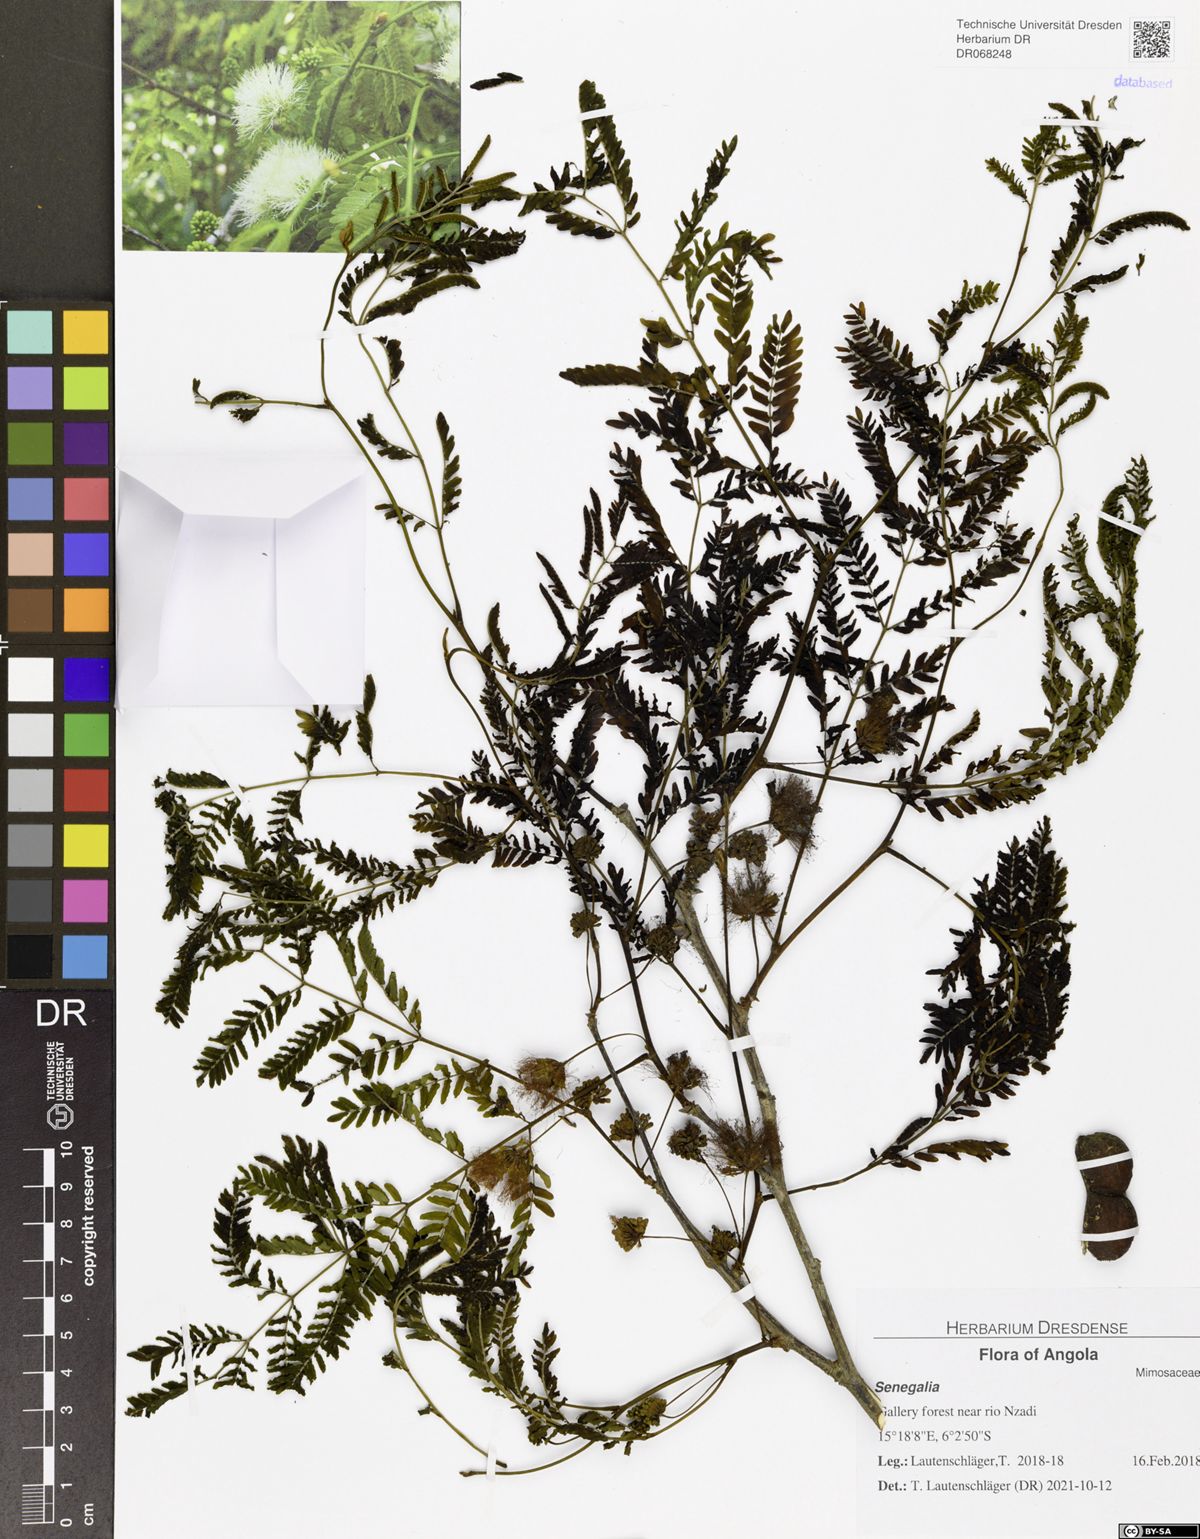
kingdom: Plantae
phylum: Tracheophyta
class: Magnoliopsida
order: Fabales
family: Fabaceae
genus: Albizia
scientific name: Albizia altissima
